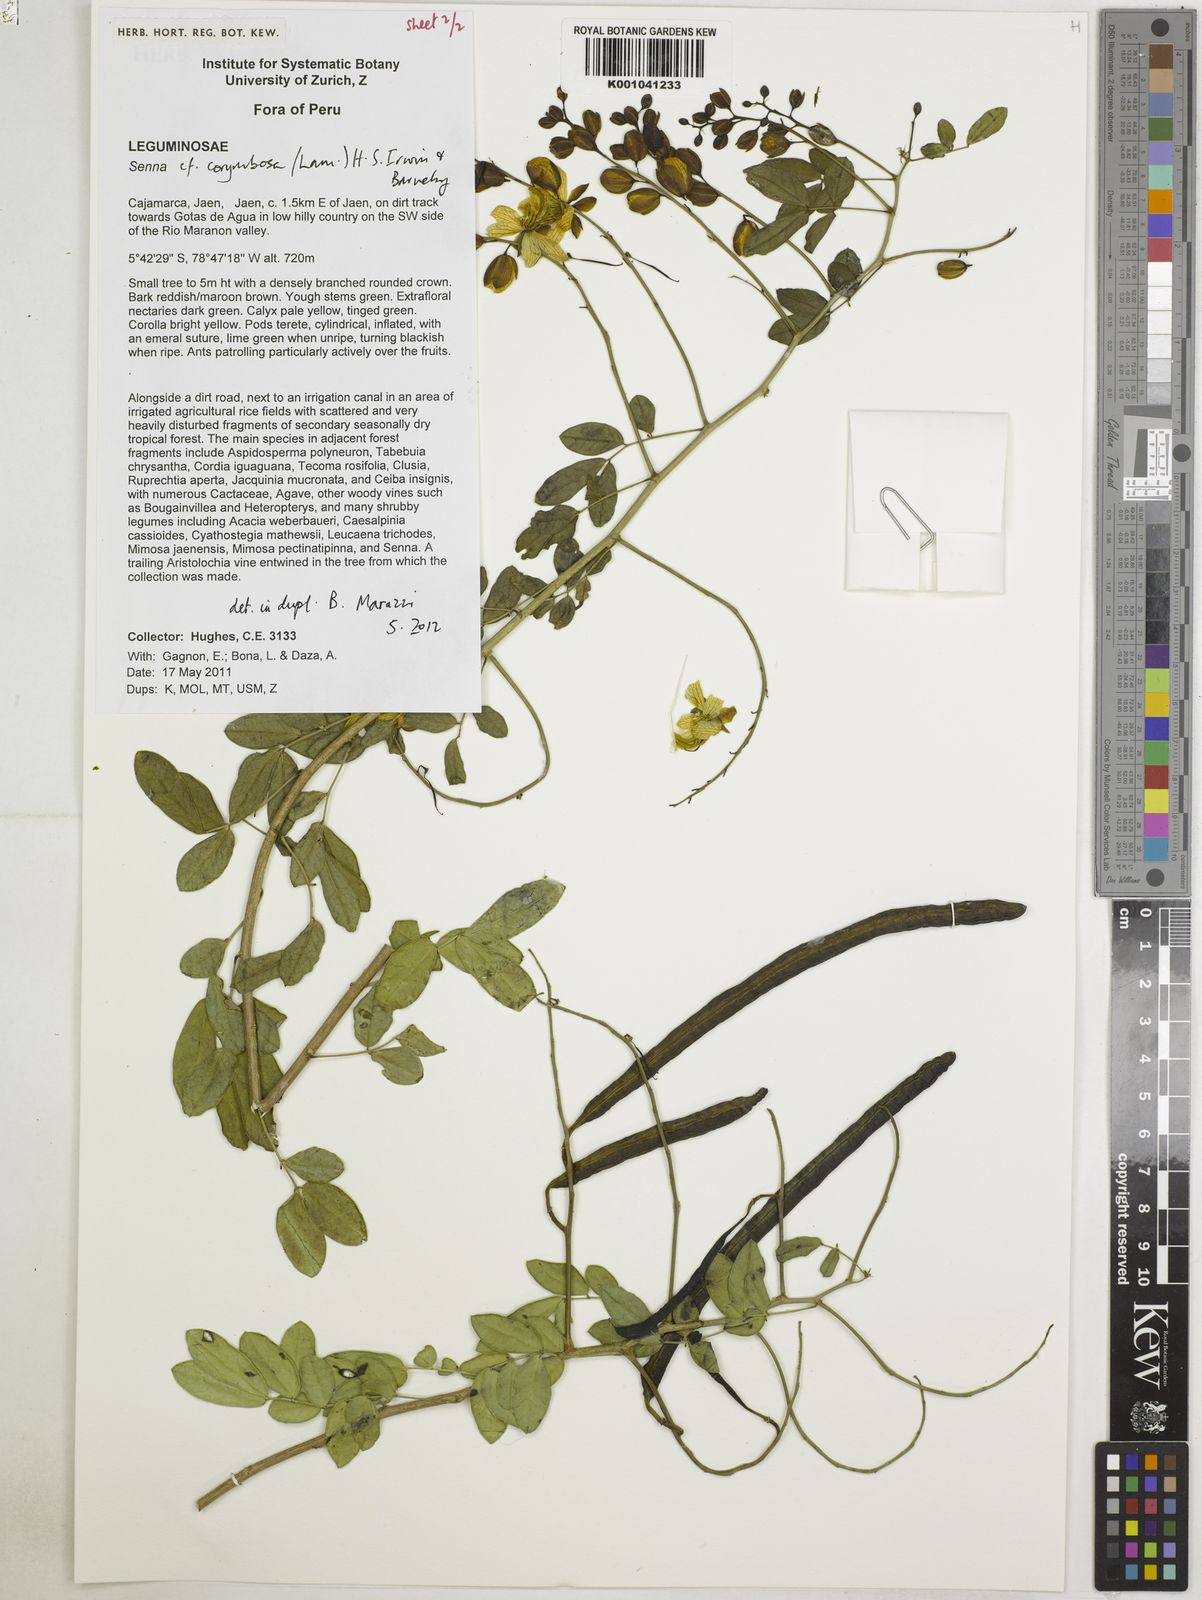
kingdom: Plantae
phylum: Tracheophyta
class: Magnoliopsida
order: Fabales
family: Fabaceae
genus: Senna
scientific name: Senna corymbosa
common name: Argentine senna
